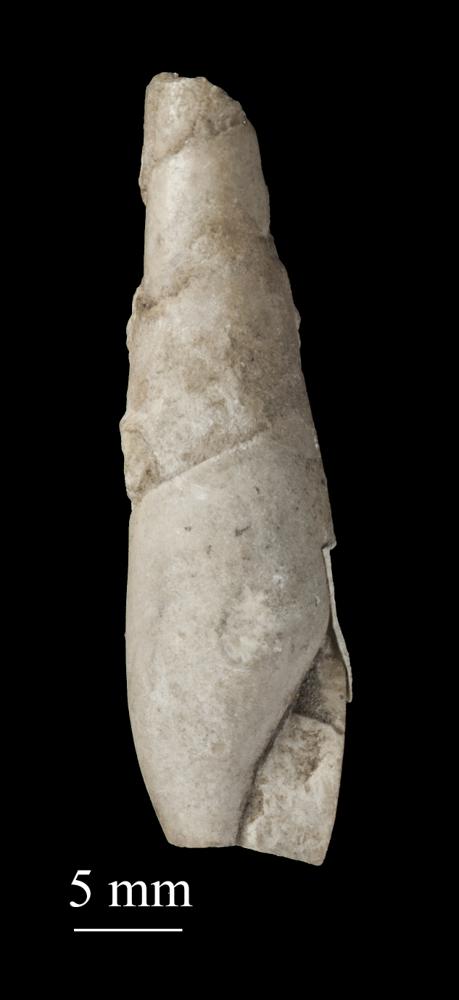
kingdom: Animalia
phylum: Mollusca
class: Gastropoda
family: Subulitidae
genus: Subulites
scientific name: Subulites subula
